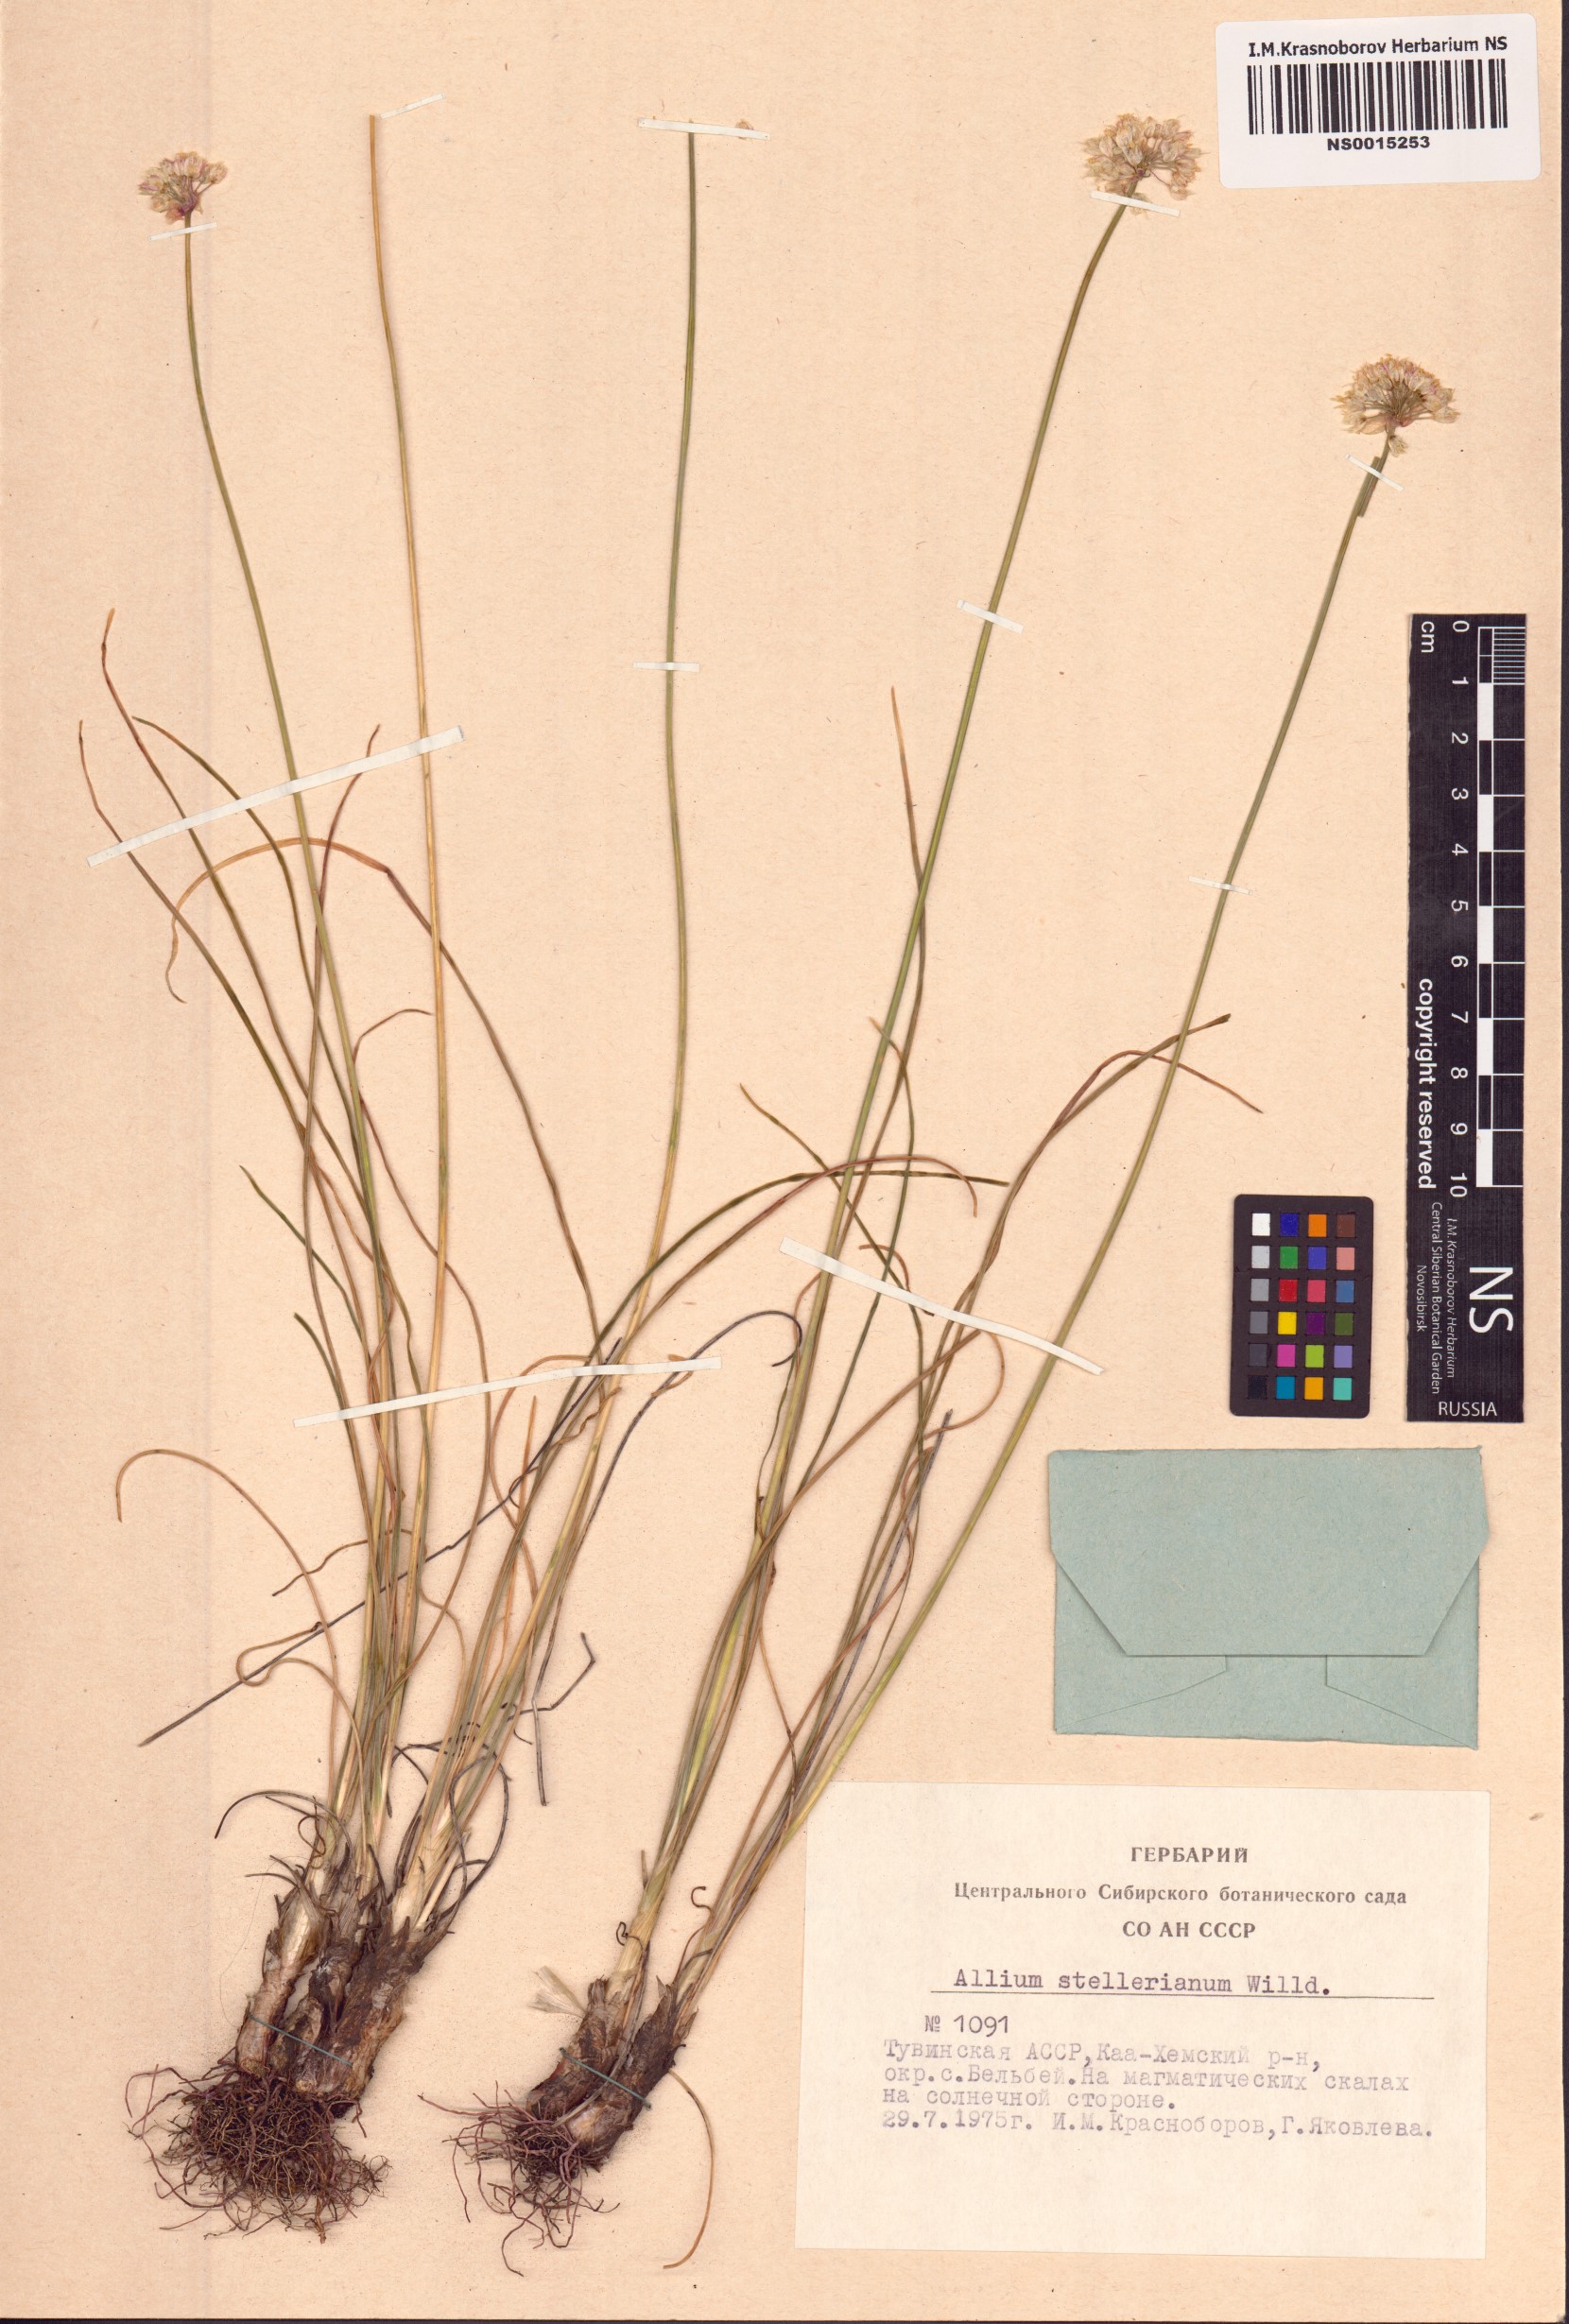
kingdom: Plantae
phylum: Tracheophyta
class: Liliopsida
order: Asparagales
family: Amaryllidaceae
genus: Allium
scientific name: Allium stellerianum
